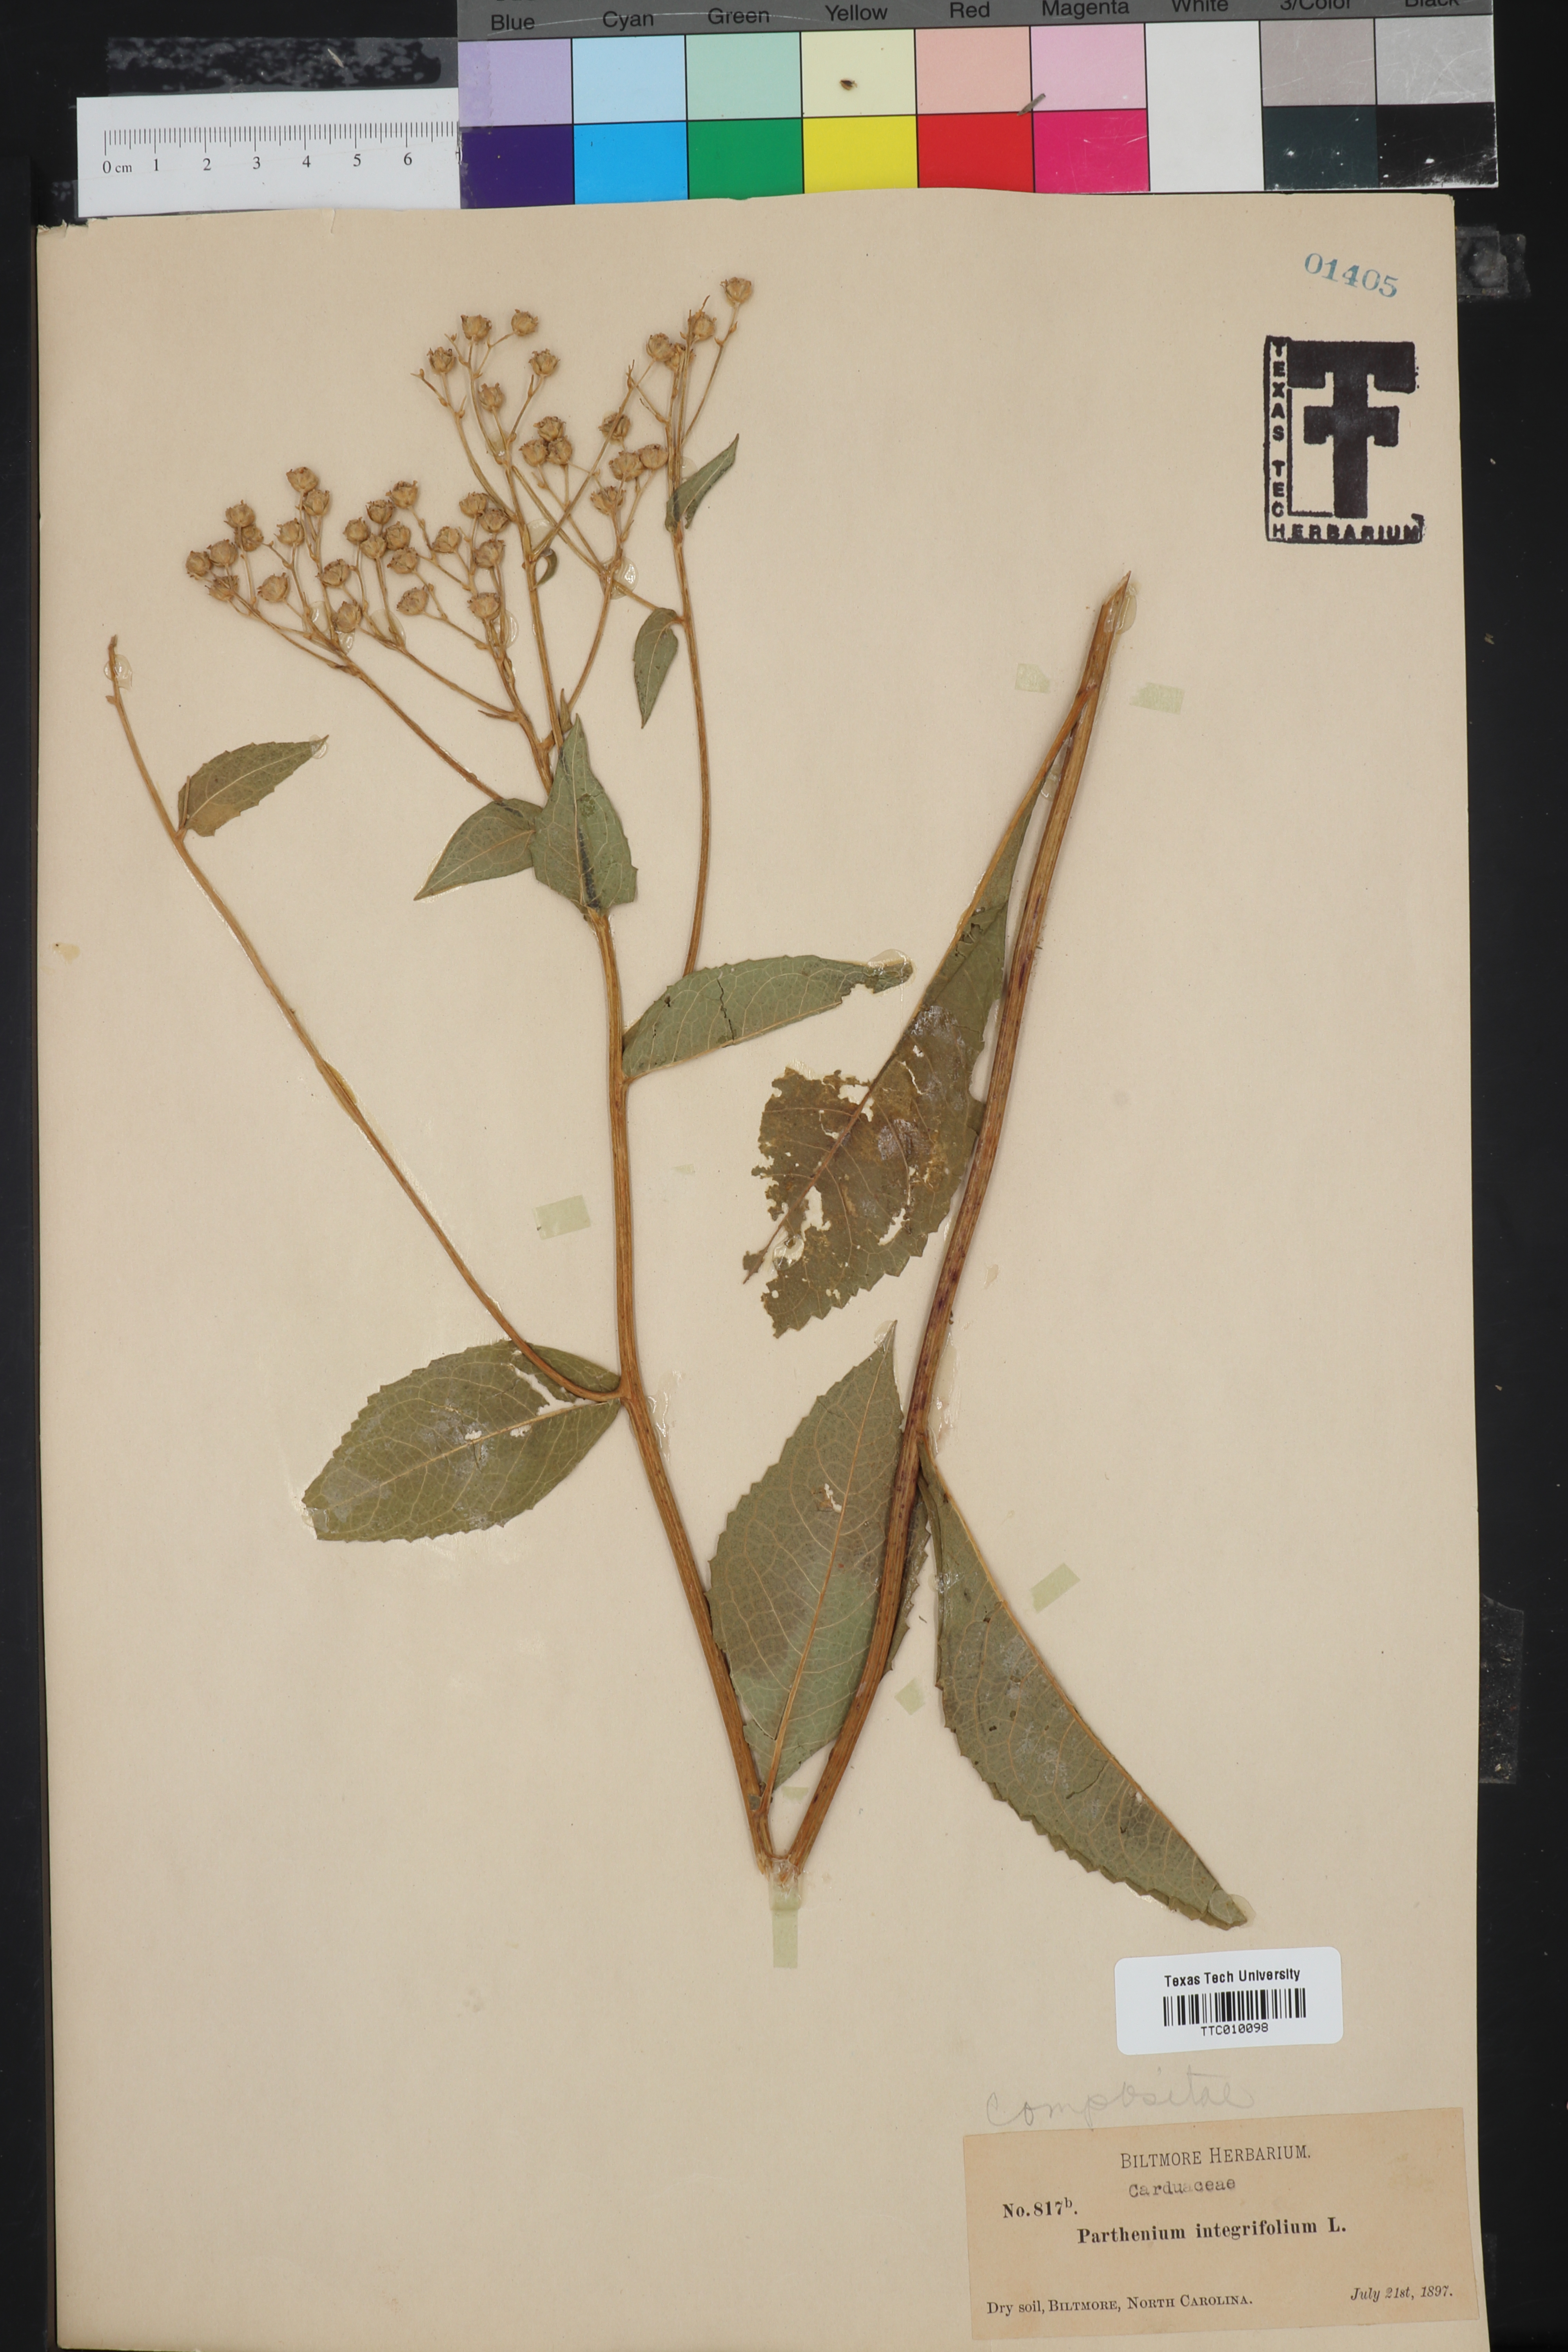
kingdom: Plantae
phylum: Tracheophyta
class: Magnoliopsida
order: Asterales
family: Asteraceae
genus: Parthenium
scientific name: Parthenium integrifolium
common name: American feverfew
